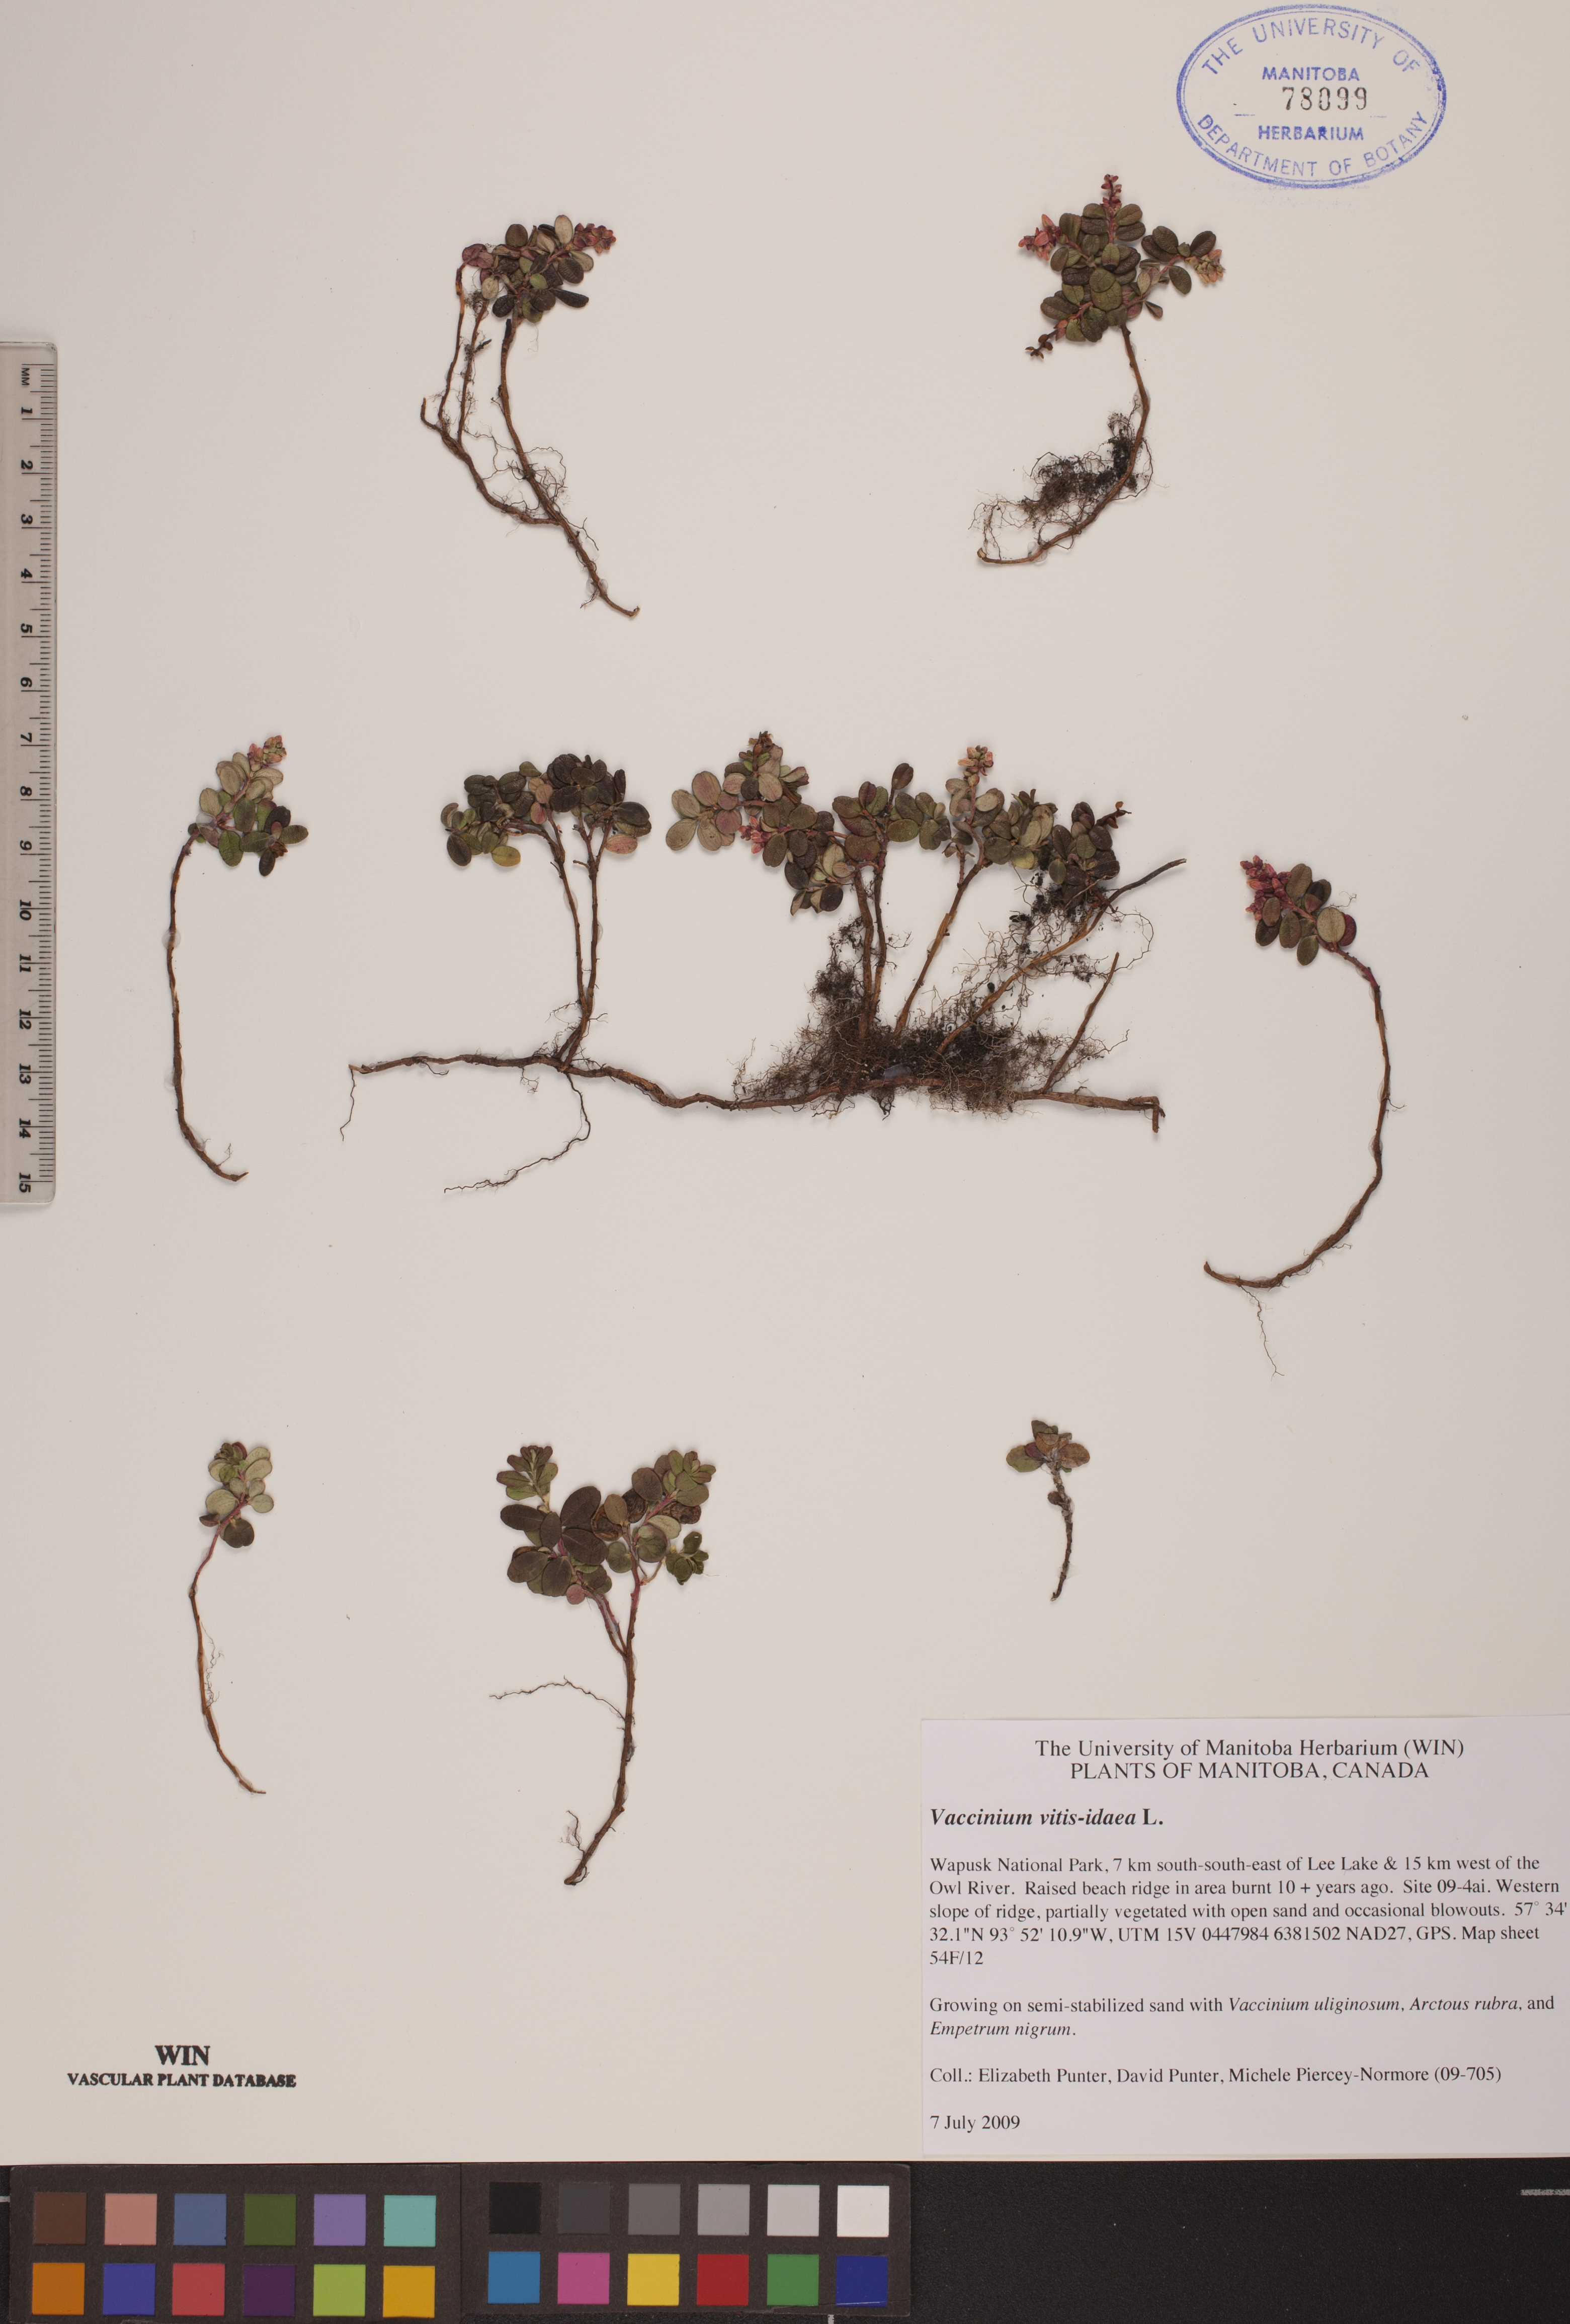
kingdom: Plantae
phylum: Tracheophyta
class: Magnoliopsida
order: Ericales
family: Ericaceae
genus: Vaccinium
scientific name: Vaccinium vitis-idaea
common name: Cowberry
